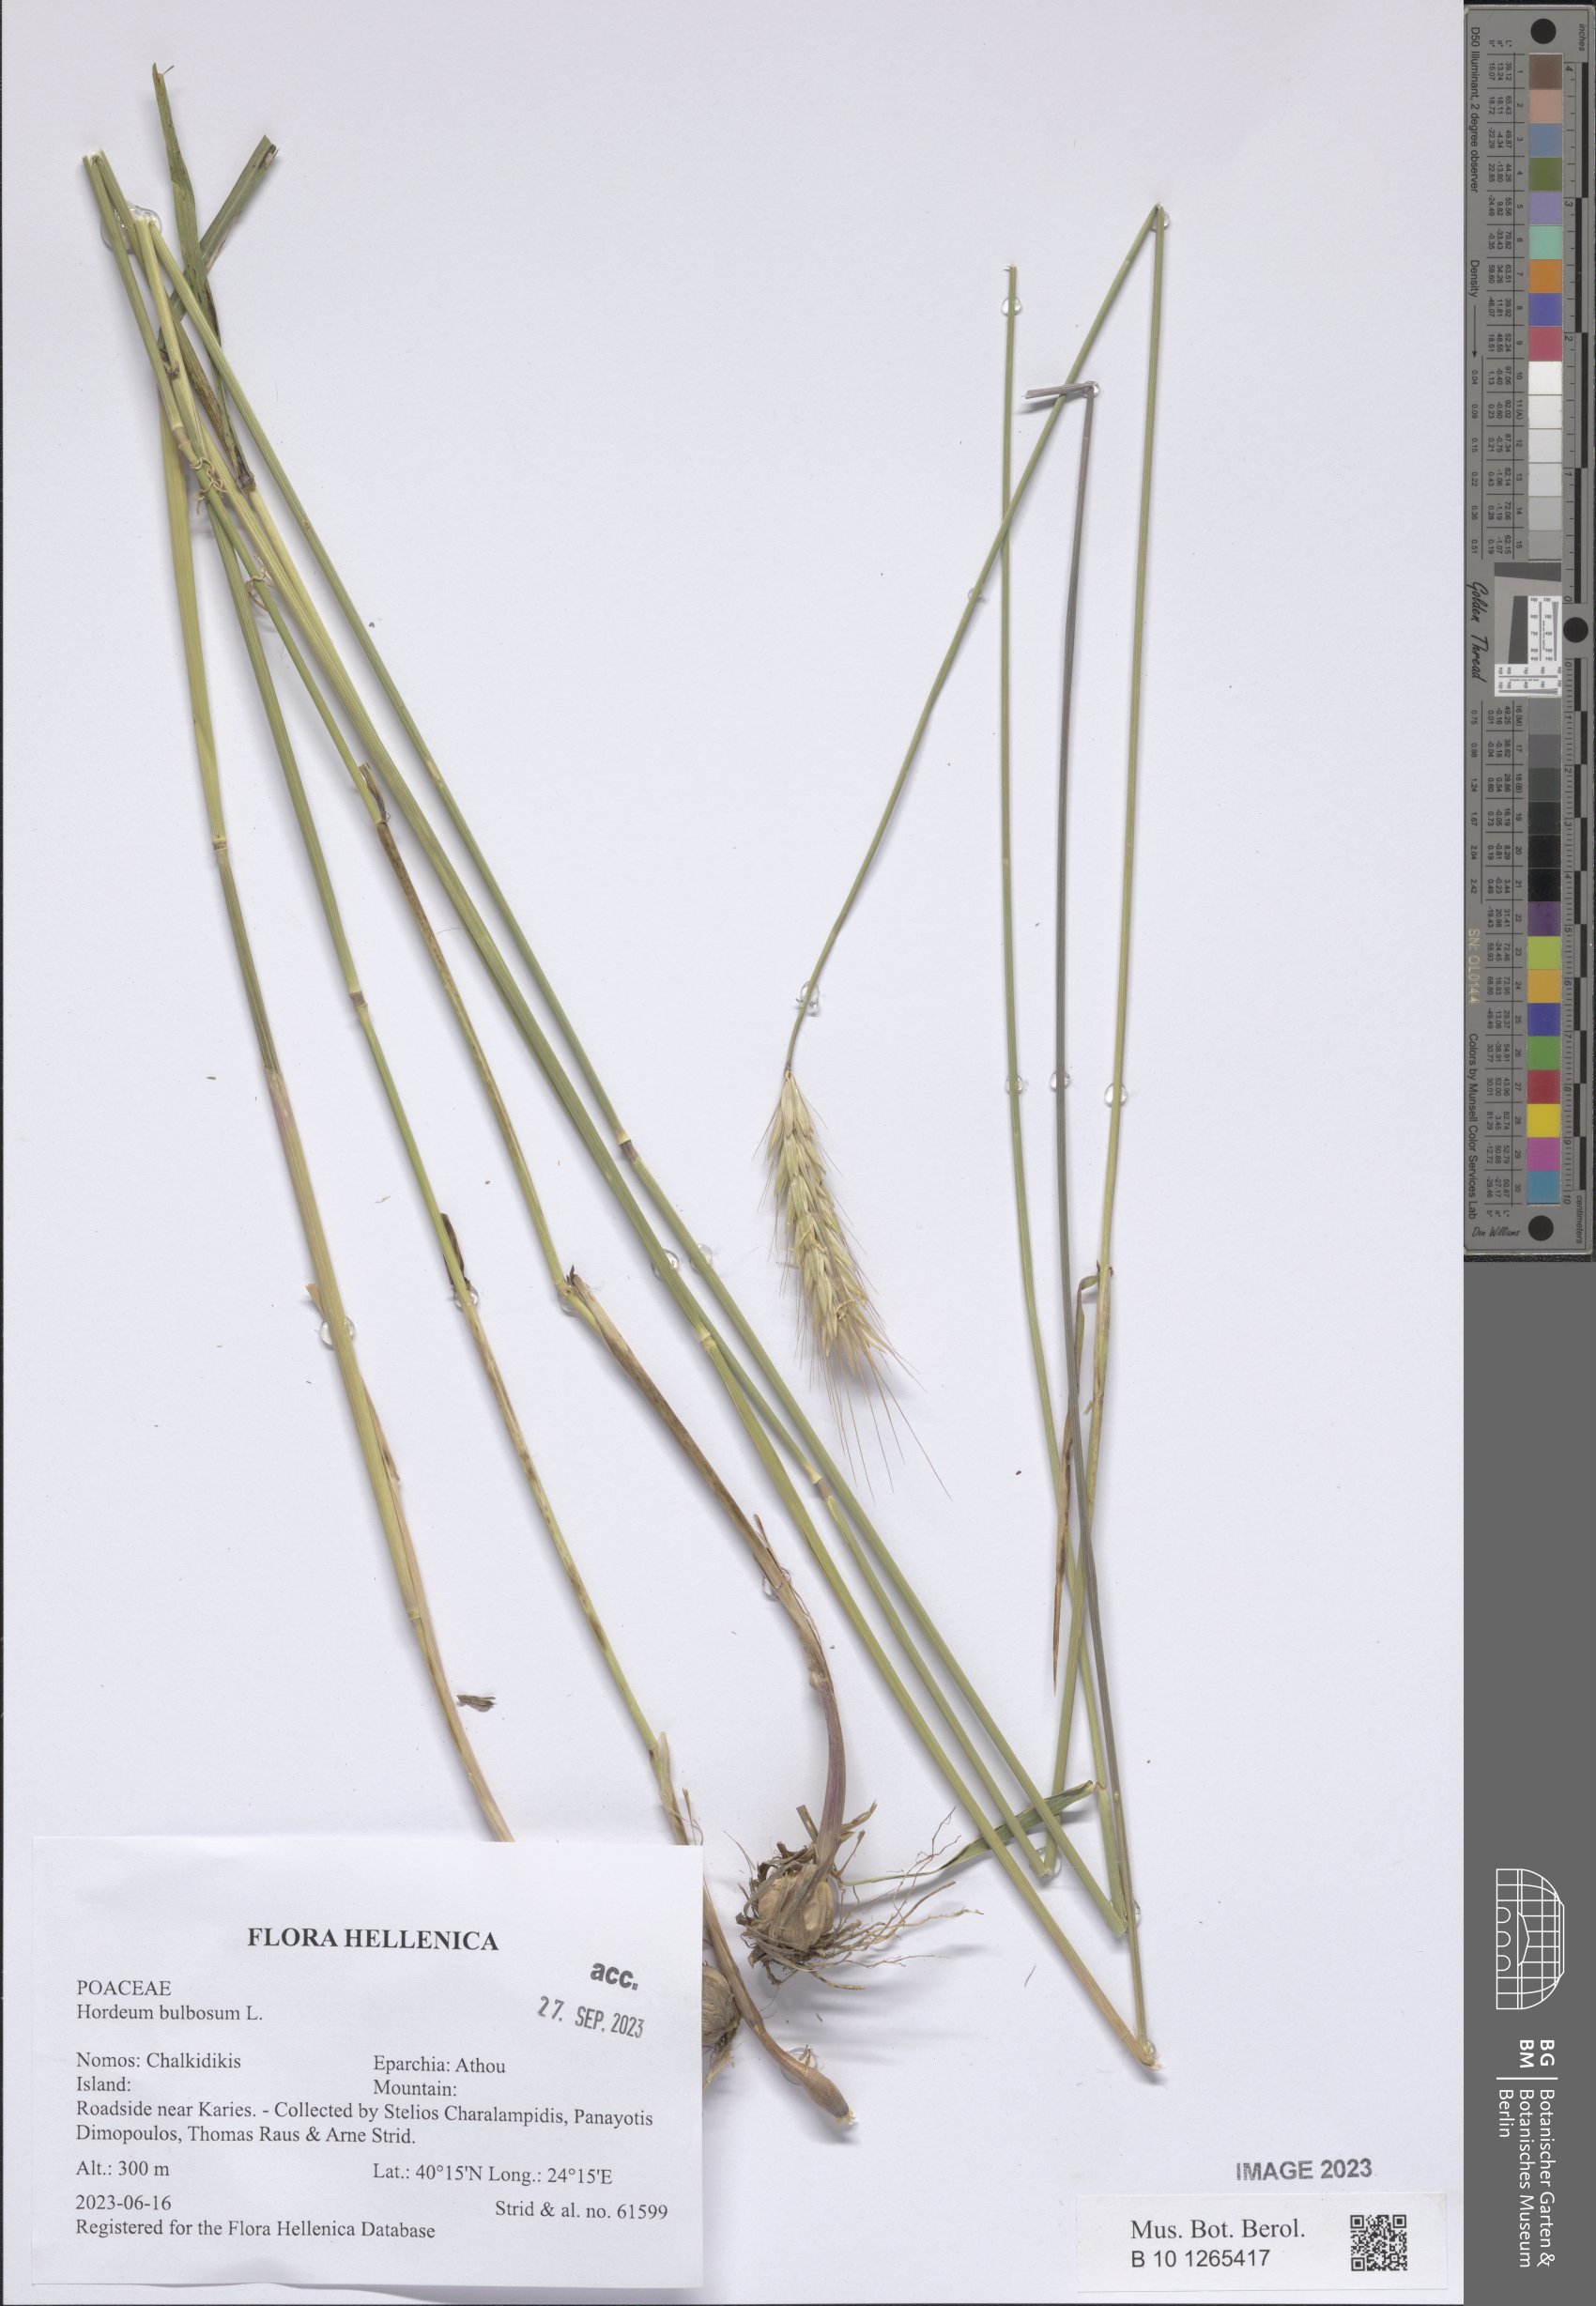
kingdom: Plantae
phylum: Tracheophyta
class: Liliopsida
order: Poales
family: Poaceae
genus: Hordeum
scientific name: Hordeum bulbosum
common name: Bulbous barley
